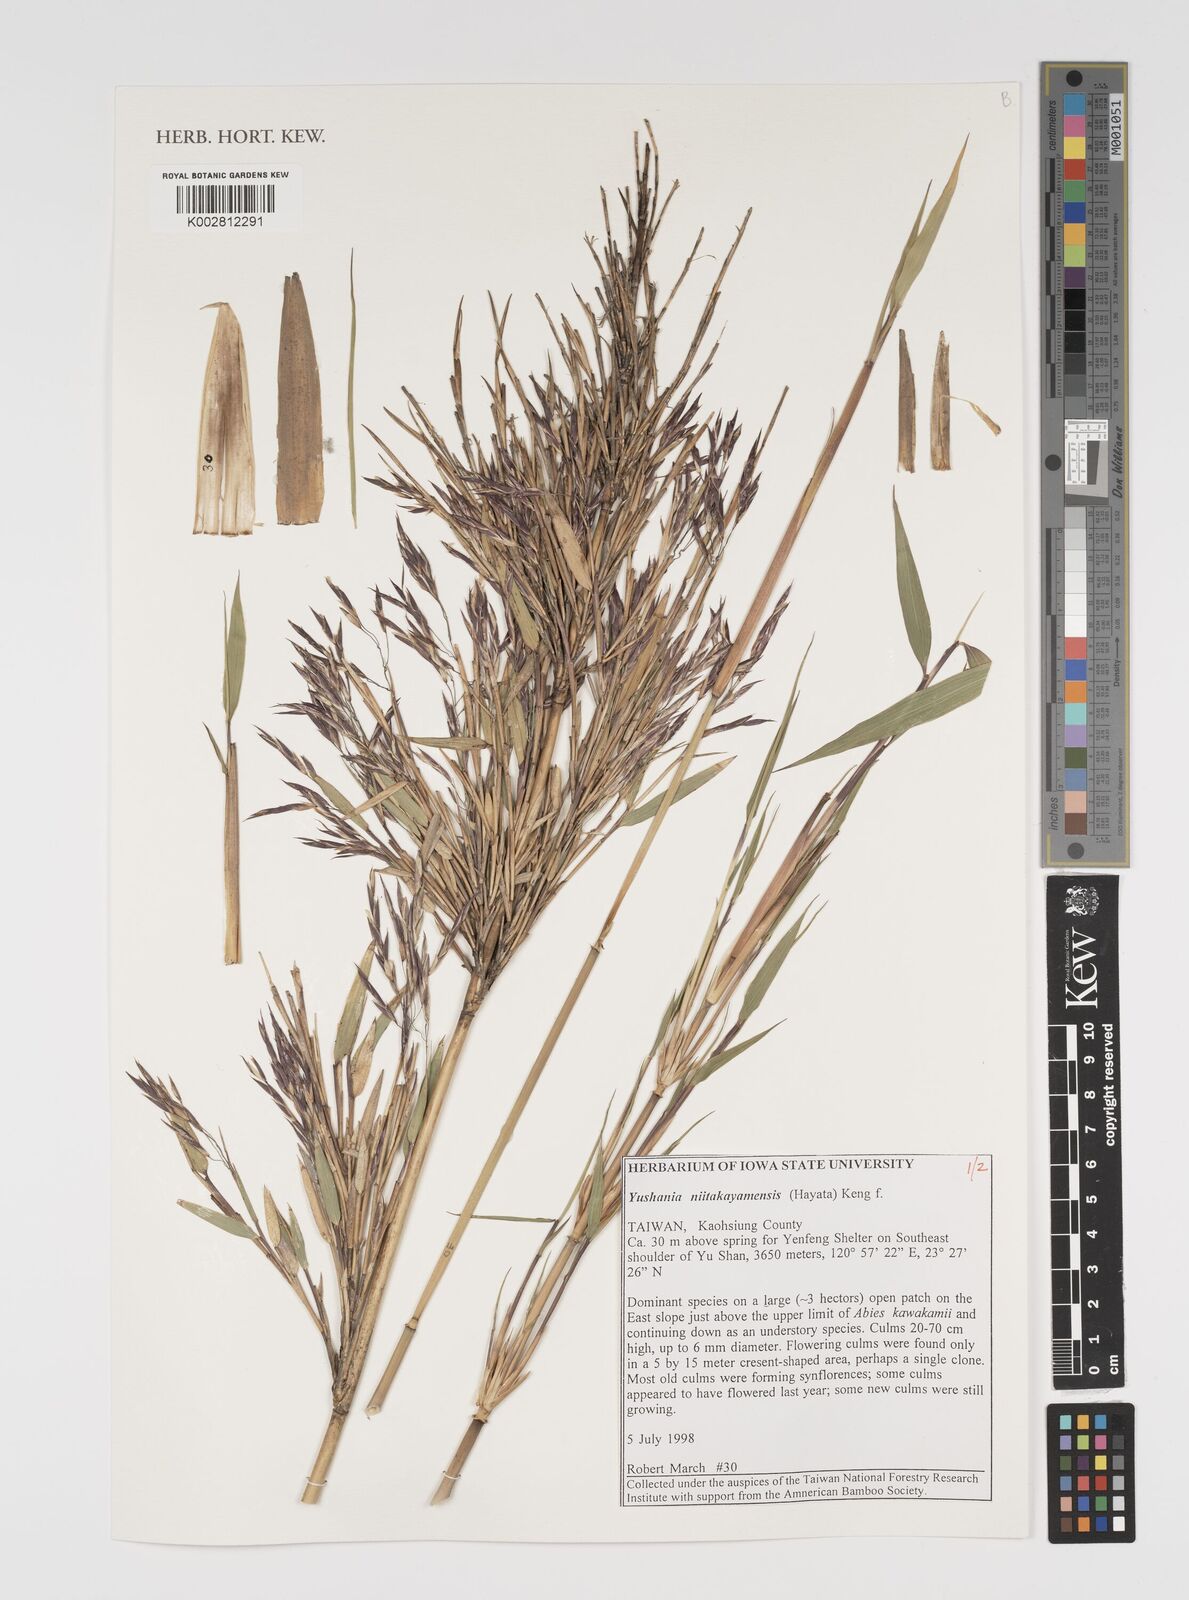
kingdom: Plantae
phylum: Tracheophyta
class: Liliopsida
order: Poales
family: Poaceae
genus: Yushania
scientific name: Yushania niitakayamensis
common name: Yushan cane
